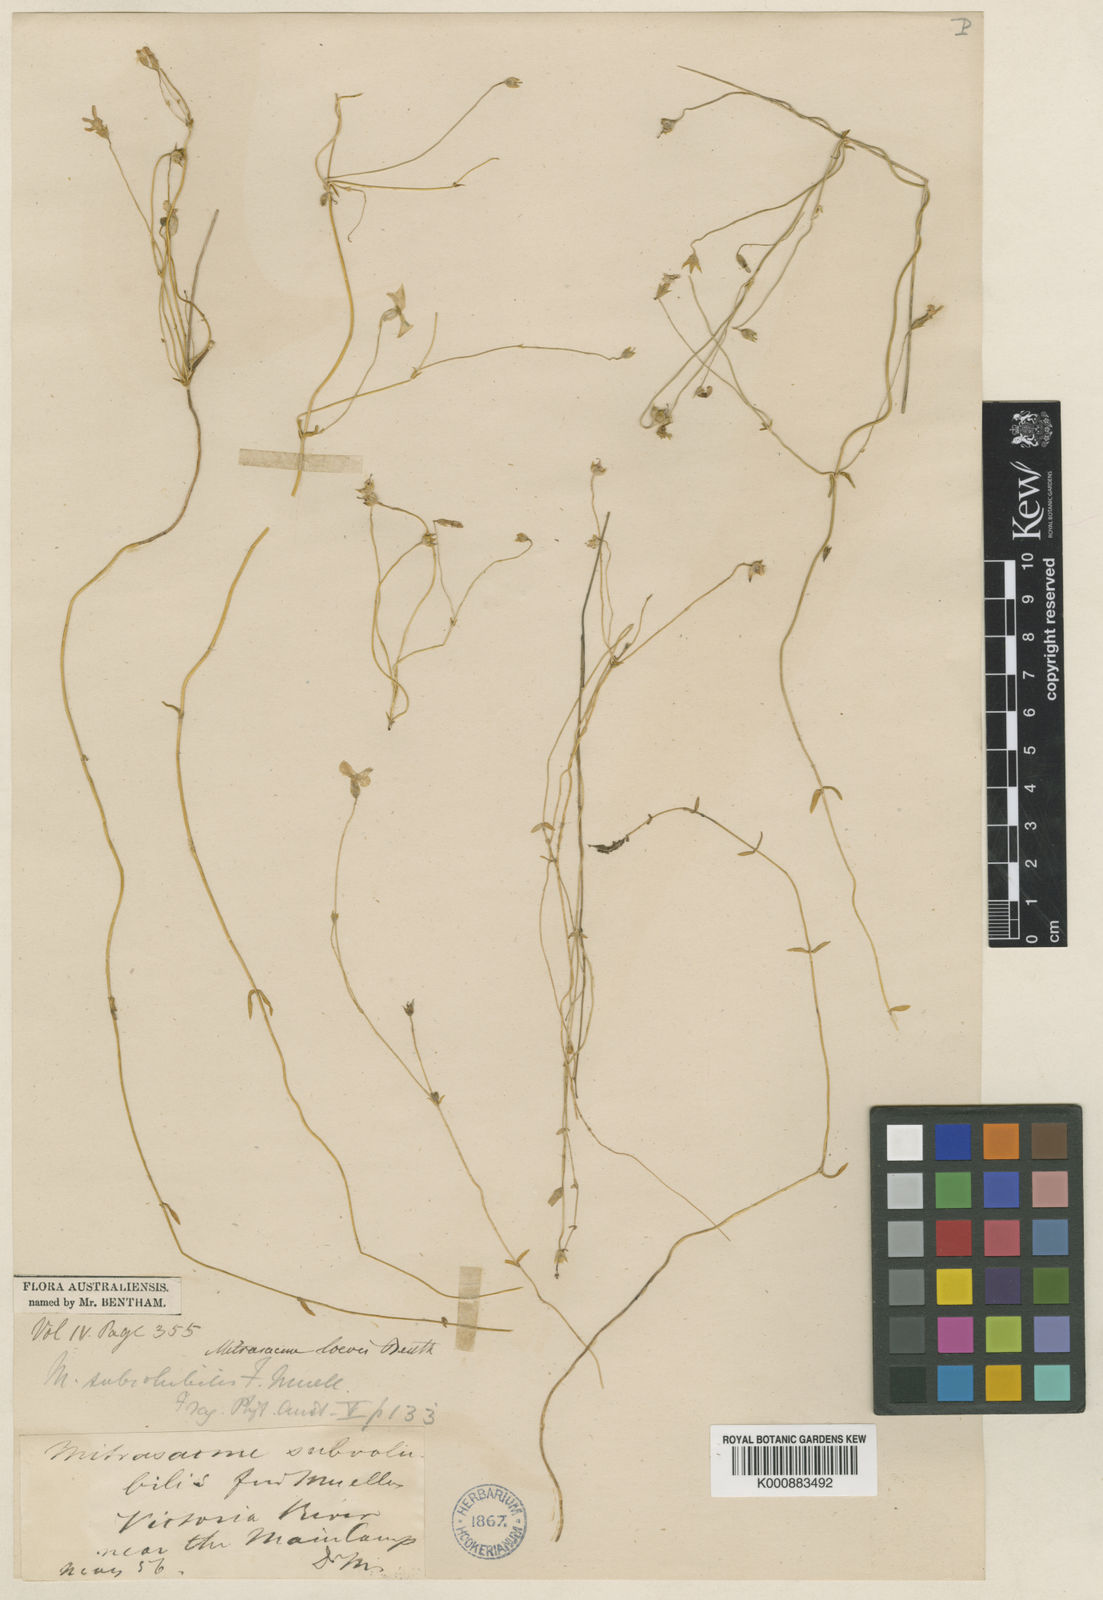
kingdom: Plantae
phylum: Tracheophyta
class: Magnoliopsida
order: Gentianales
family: Loganiaceae
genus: Mitrasacme
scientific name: Mitrasacme subvolubilis
